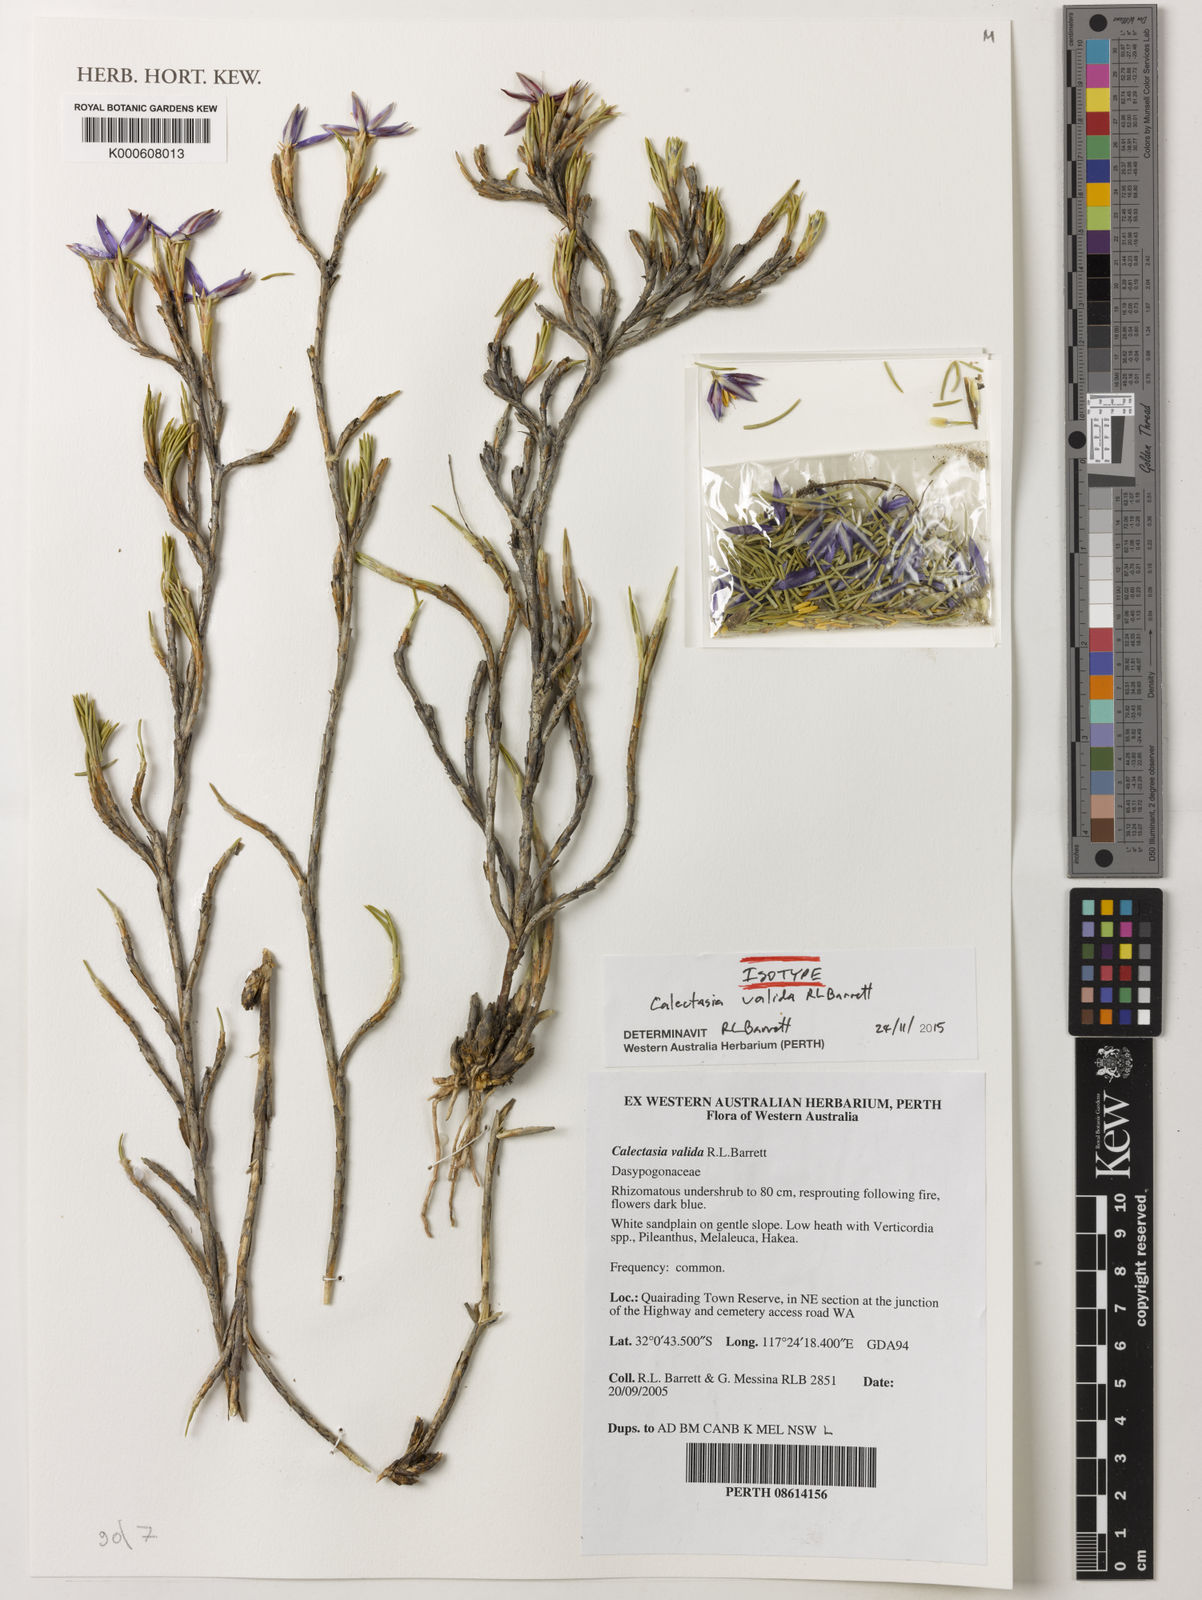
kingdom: Plantae
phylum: Tracheophyta
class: Liliopsida
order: Arecales
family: Dasypogonaceae
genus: Calectasia
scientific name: Calectasia valida
